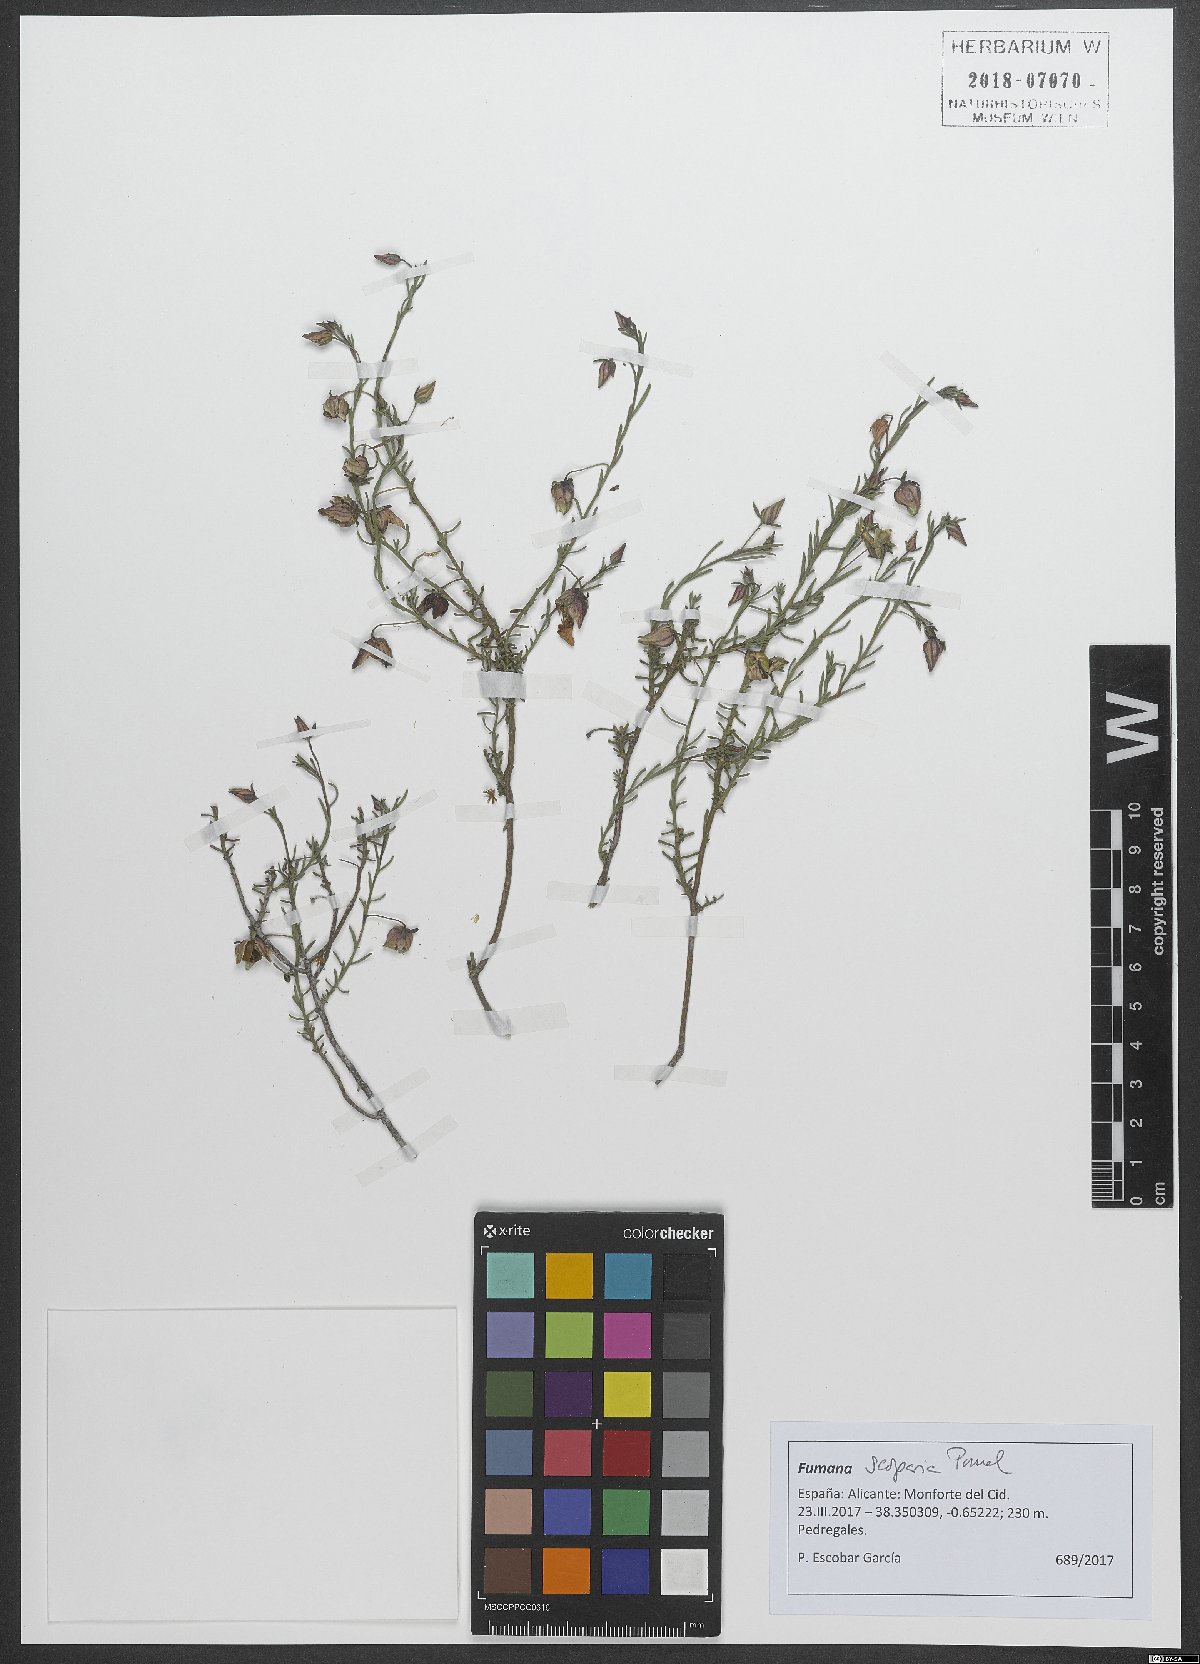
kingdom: Plantae
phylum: Tracheophyta
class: Magnoliopsida
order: Malvales
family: Cistaceae
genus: Fumana
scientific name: Fumana scoparia
